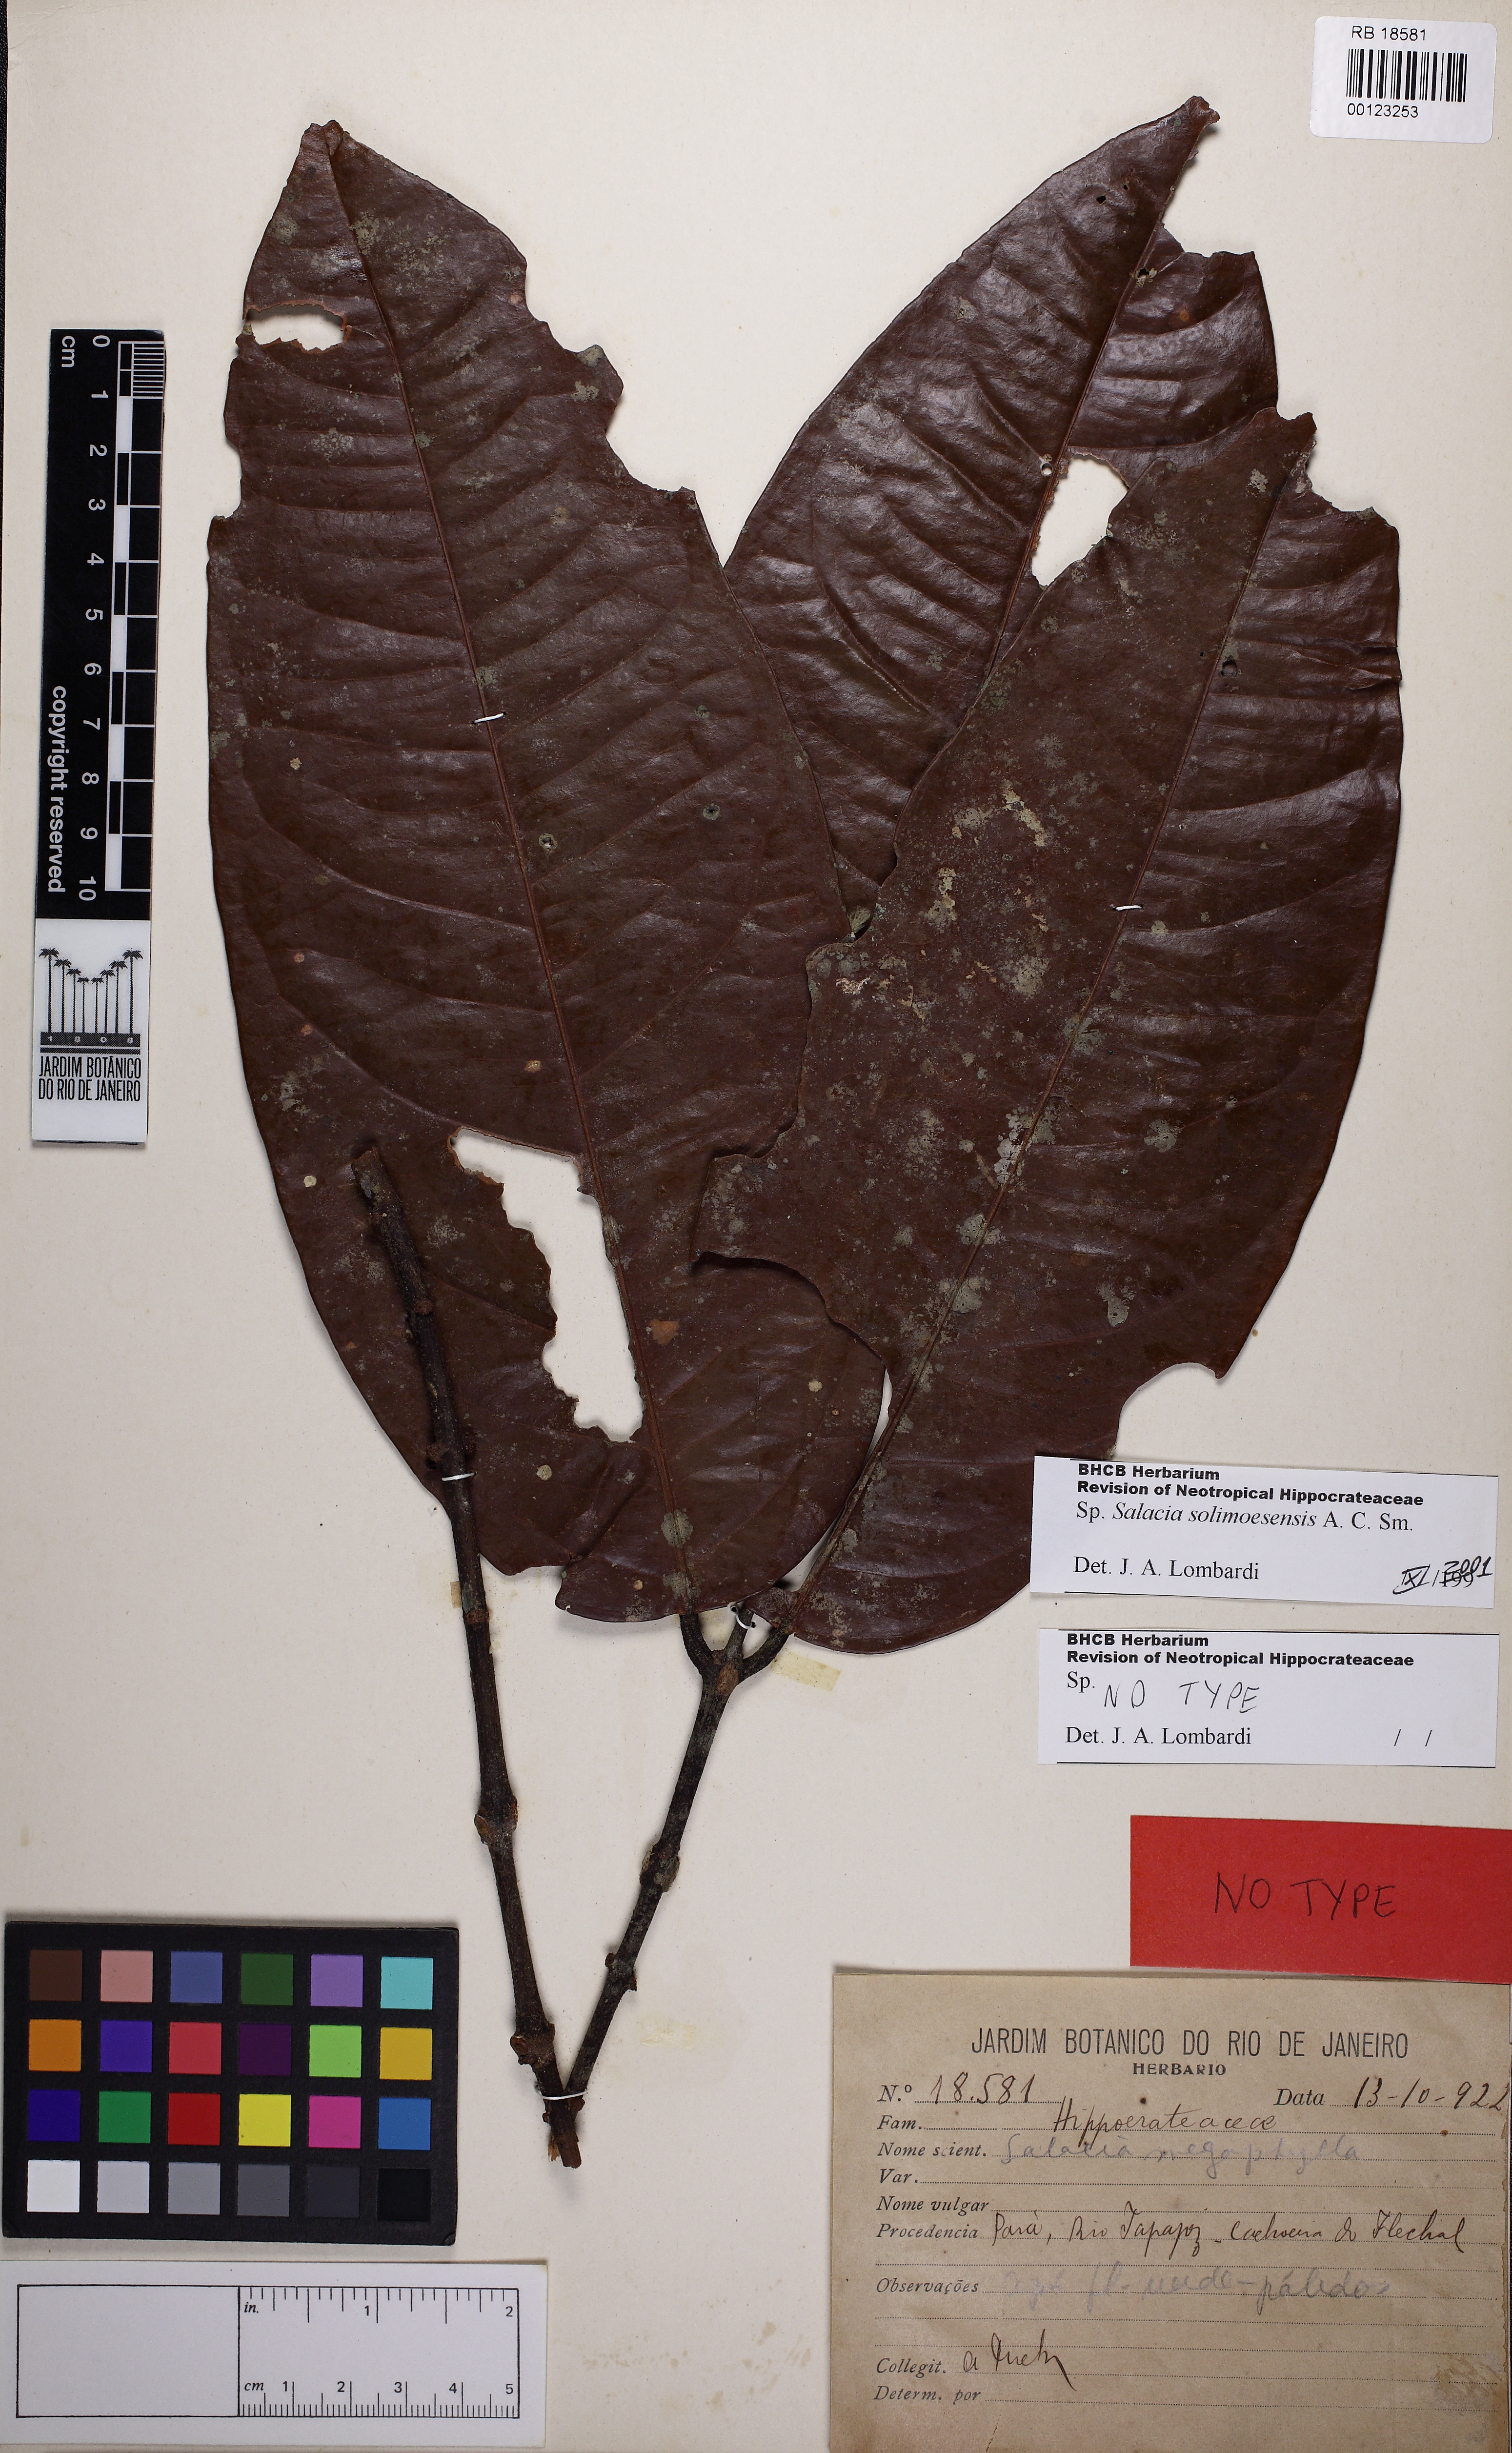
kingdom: Plantae
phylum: Tracheophyta
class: Magnoliopsida
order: Celastrales
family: Celastraceae
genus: Salacia
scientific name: Salacia solimoesensis
